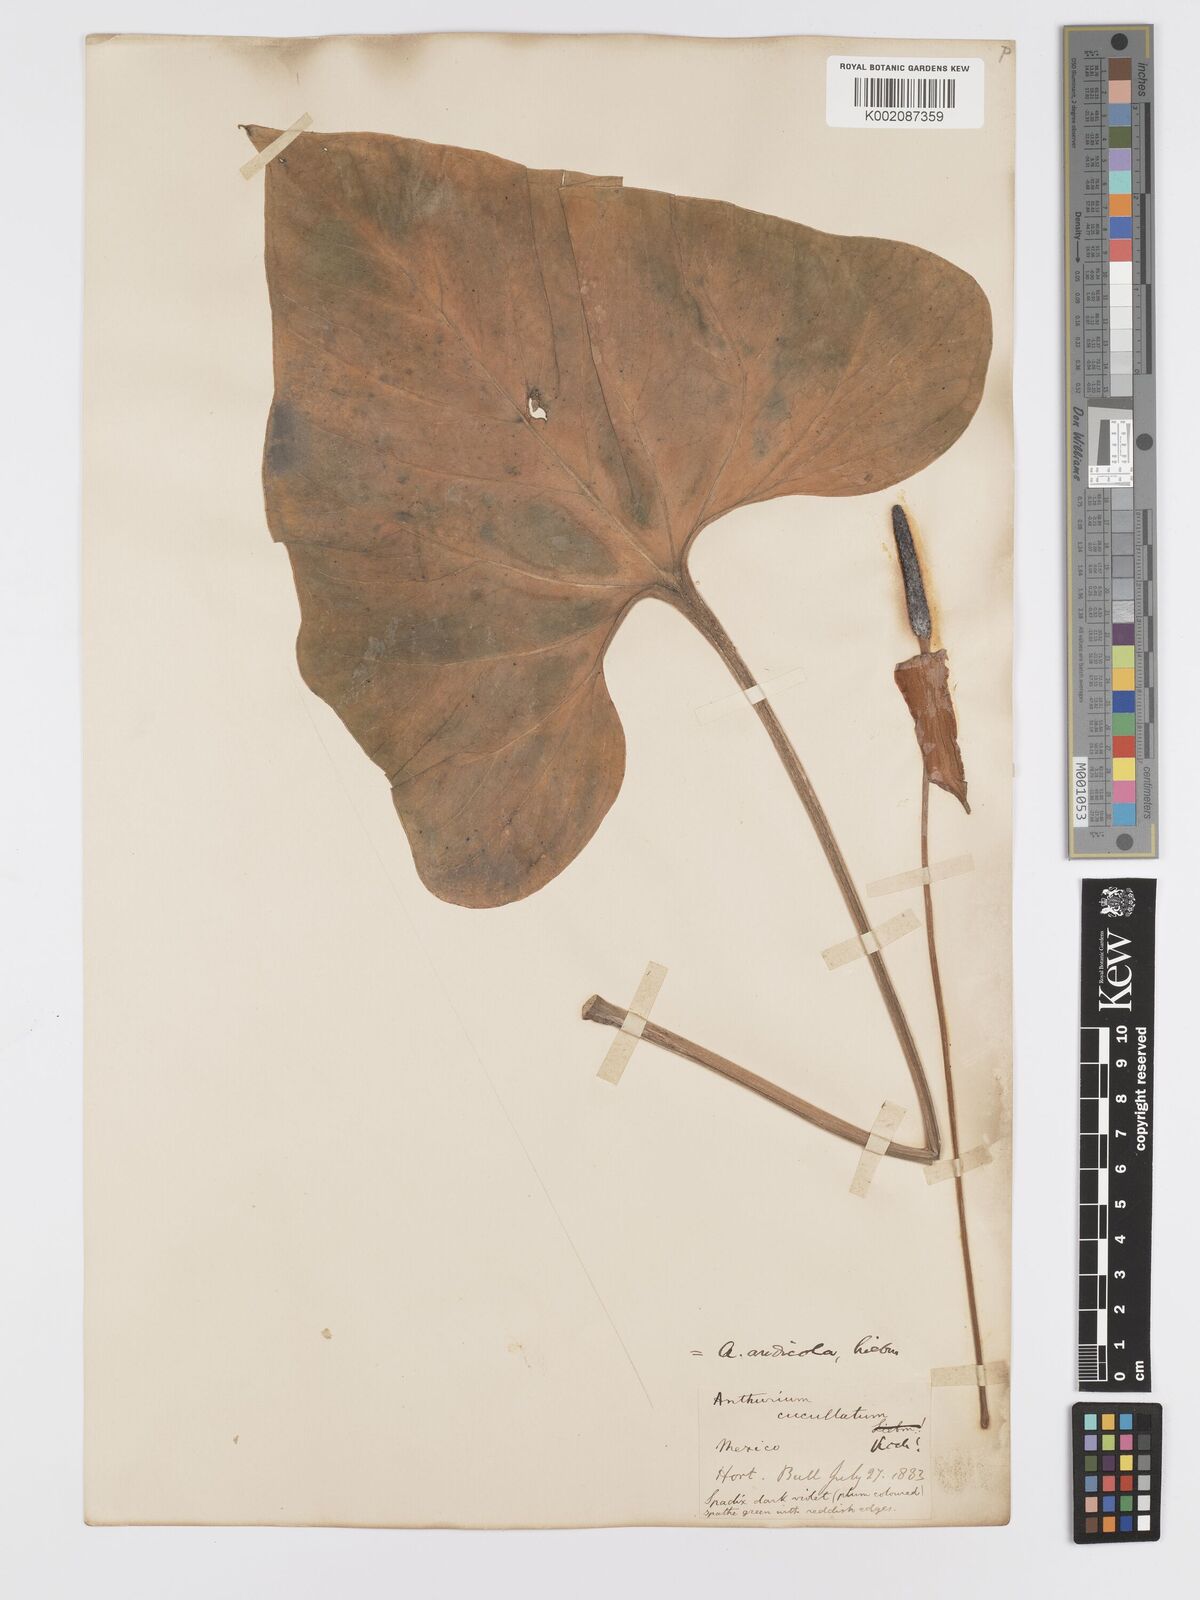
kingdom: Plantae
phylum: Tracheophyta
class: Liliopsida
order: Alismatales
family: Araceae
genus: Anthurium
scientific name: Anthurium andicola
